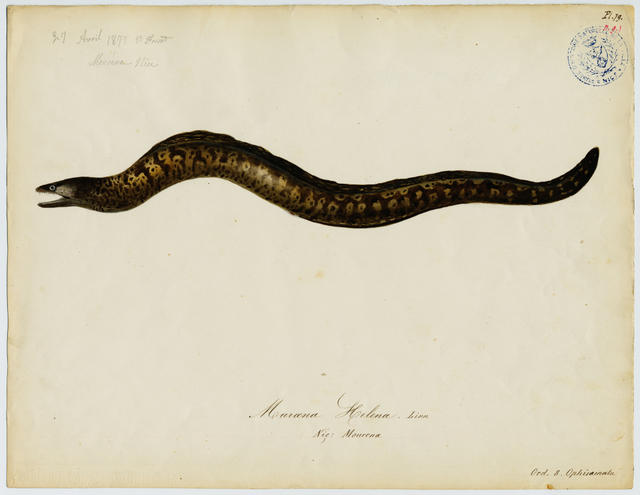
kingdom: Animalia
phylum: Chordata
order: Anguilliformes
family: Muraenidae
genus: Muraena
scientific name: Muraena helena
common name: Mediterranean moray
